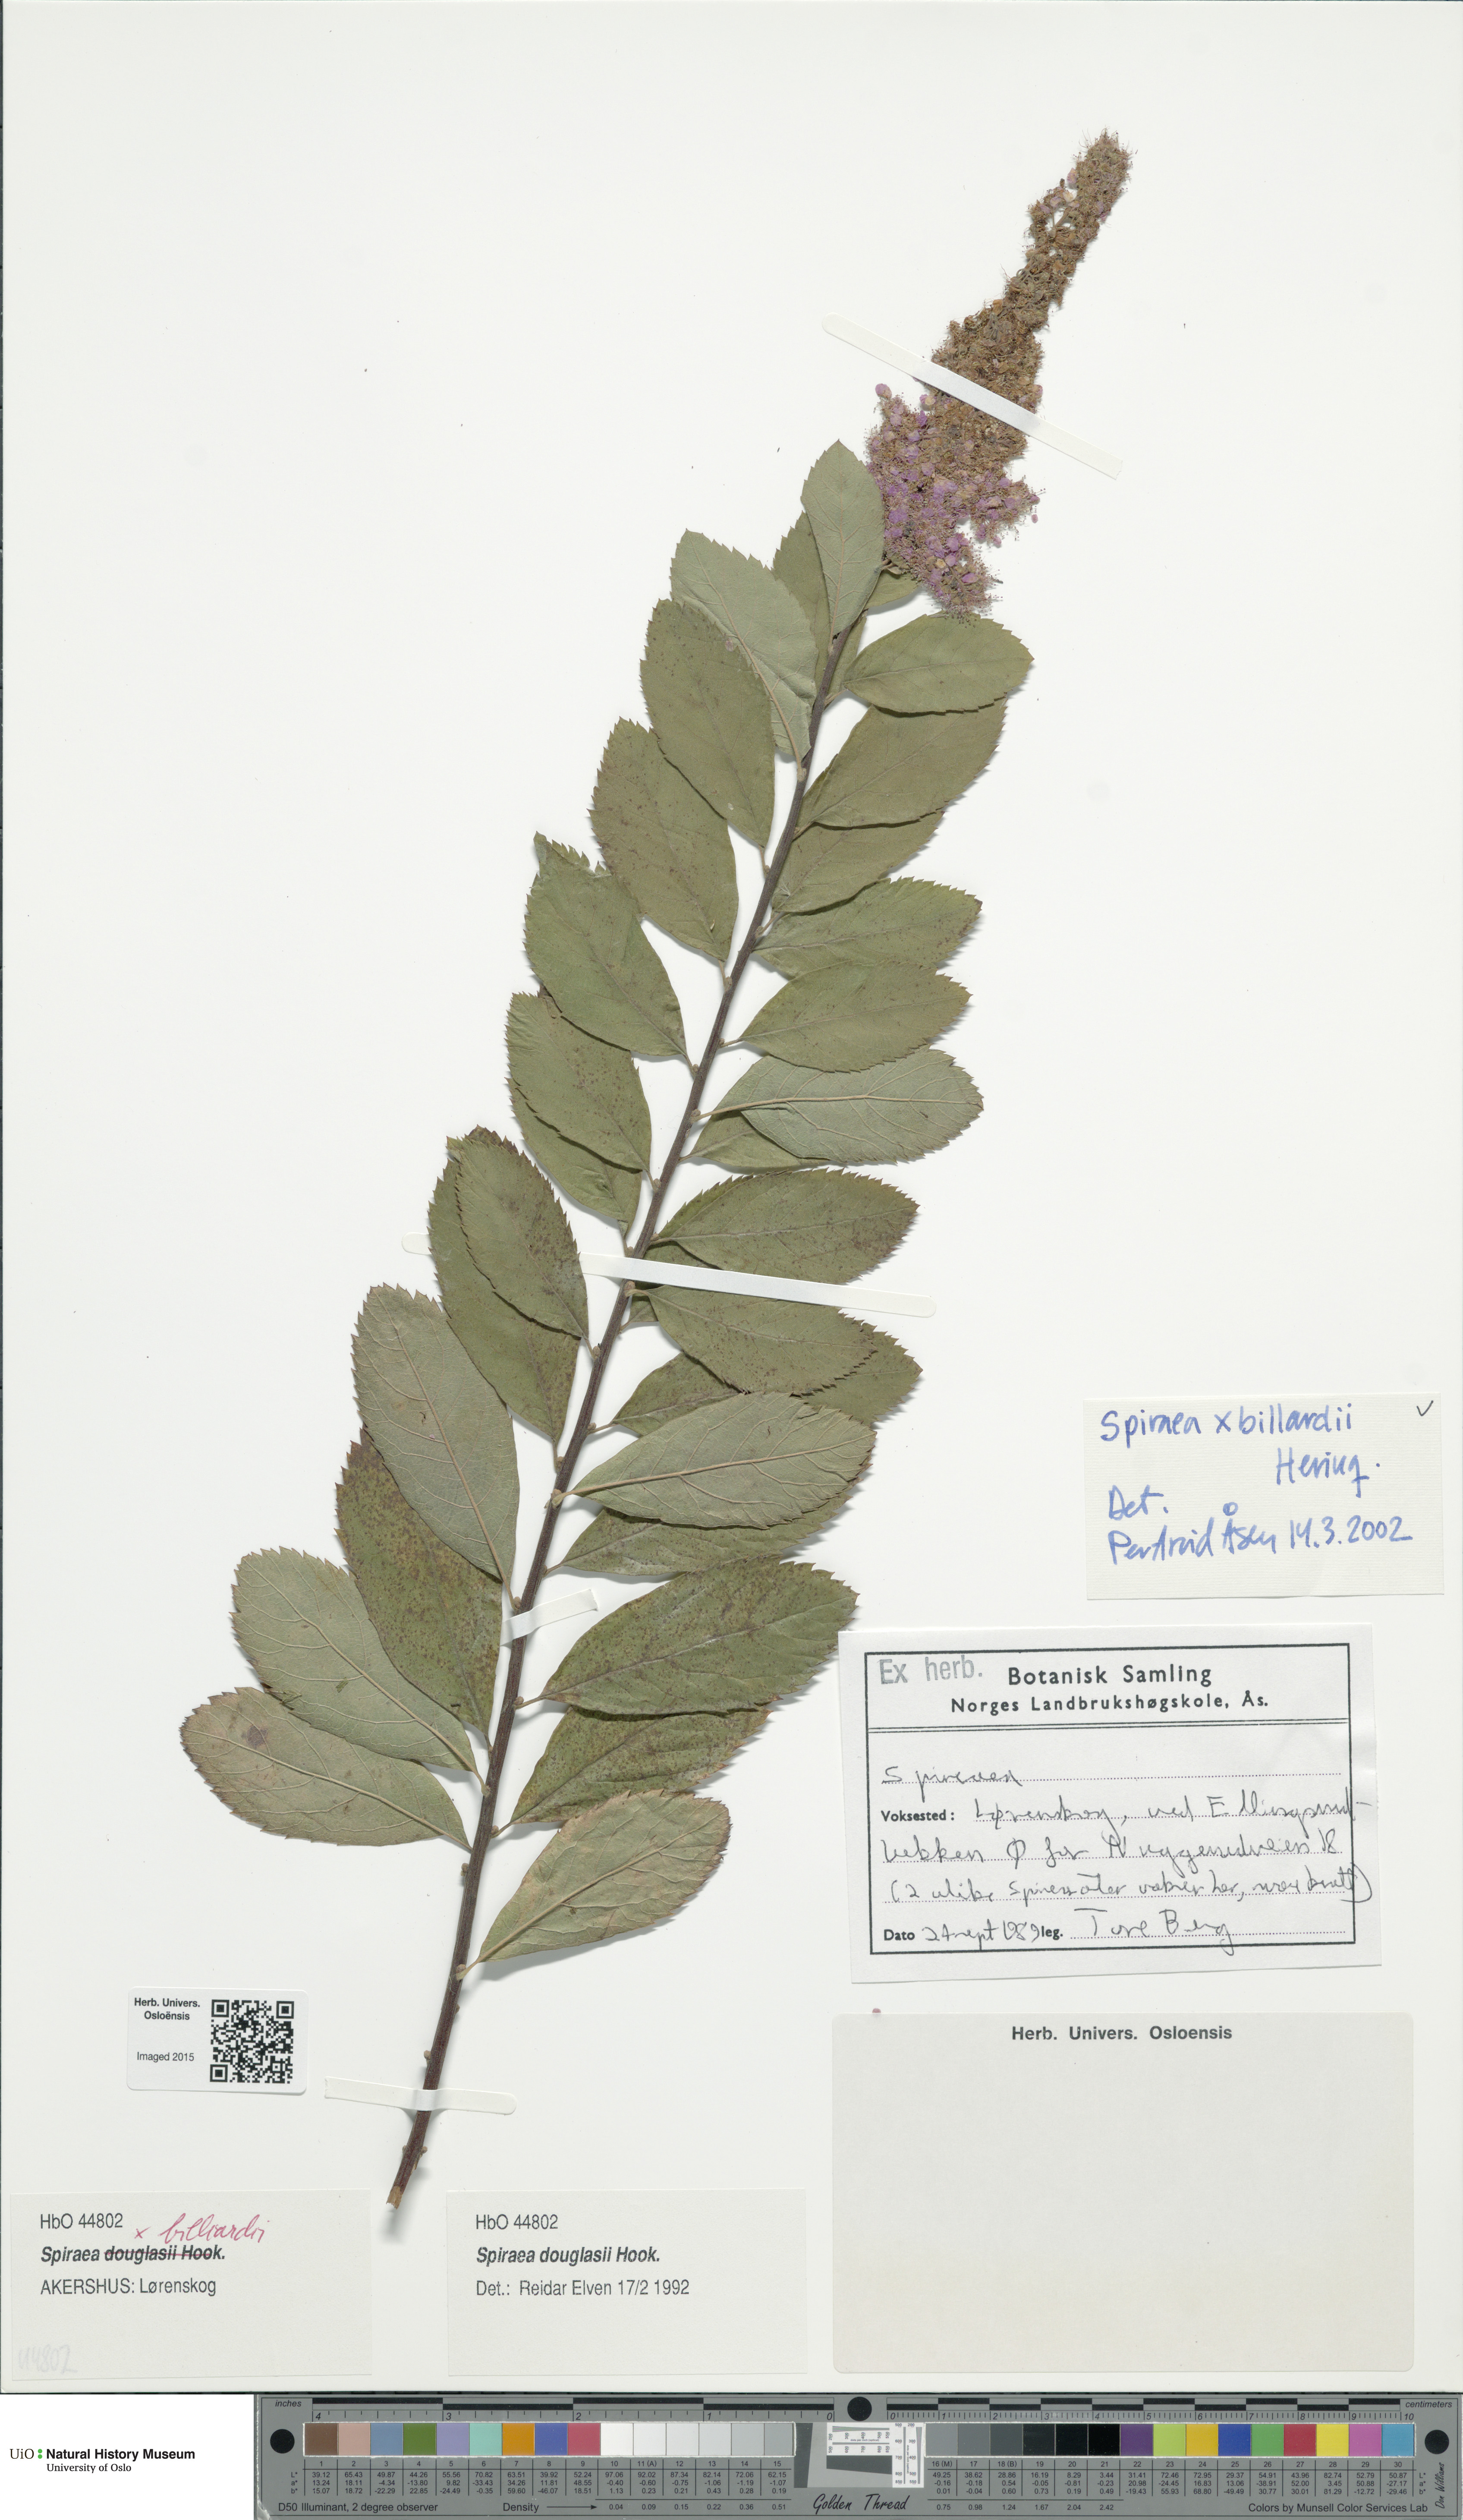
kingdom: Plantae
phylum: Tracheophyta
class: Magnoliopsida
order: Rosales
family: Rosaceae
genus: Spiraea
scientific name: Spiraea billardii
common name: Billard's bridewort
